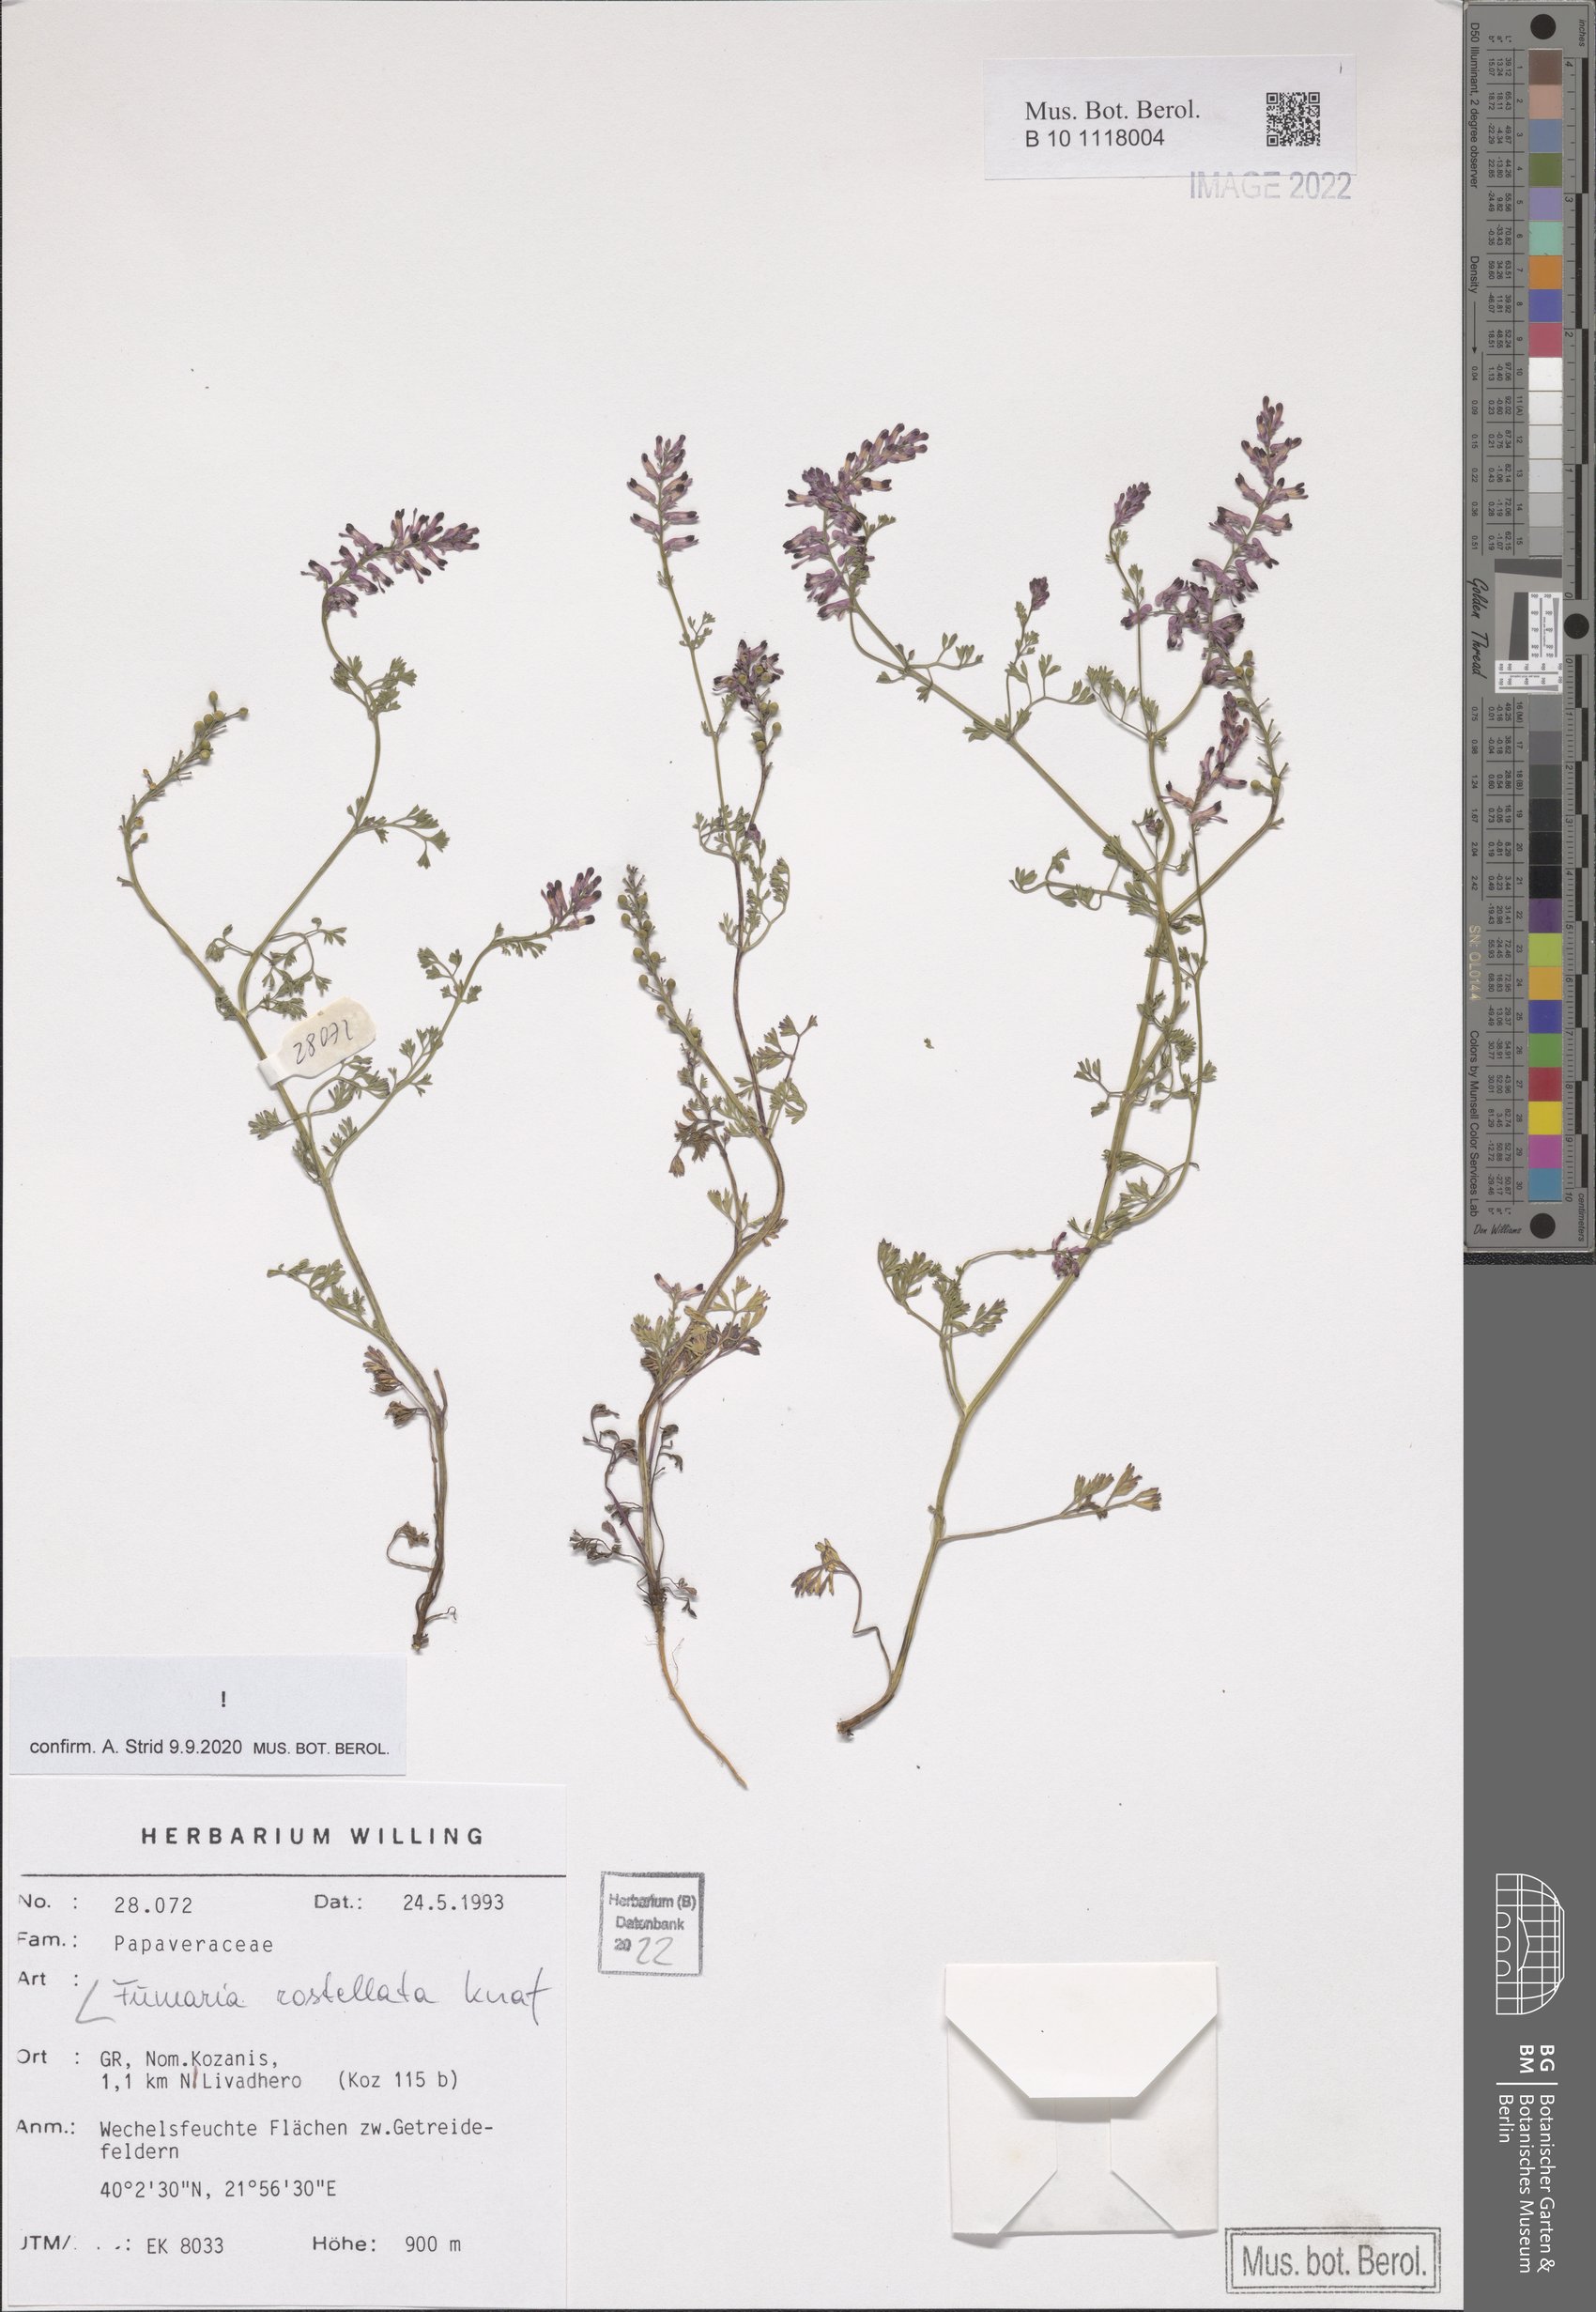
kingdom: Plantae
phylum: Tracheophyta
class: Magnoliopsida
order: Ranunculales
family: Papaveraceae
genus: Fumaria
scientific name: Fumaria rostellata
